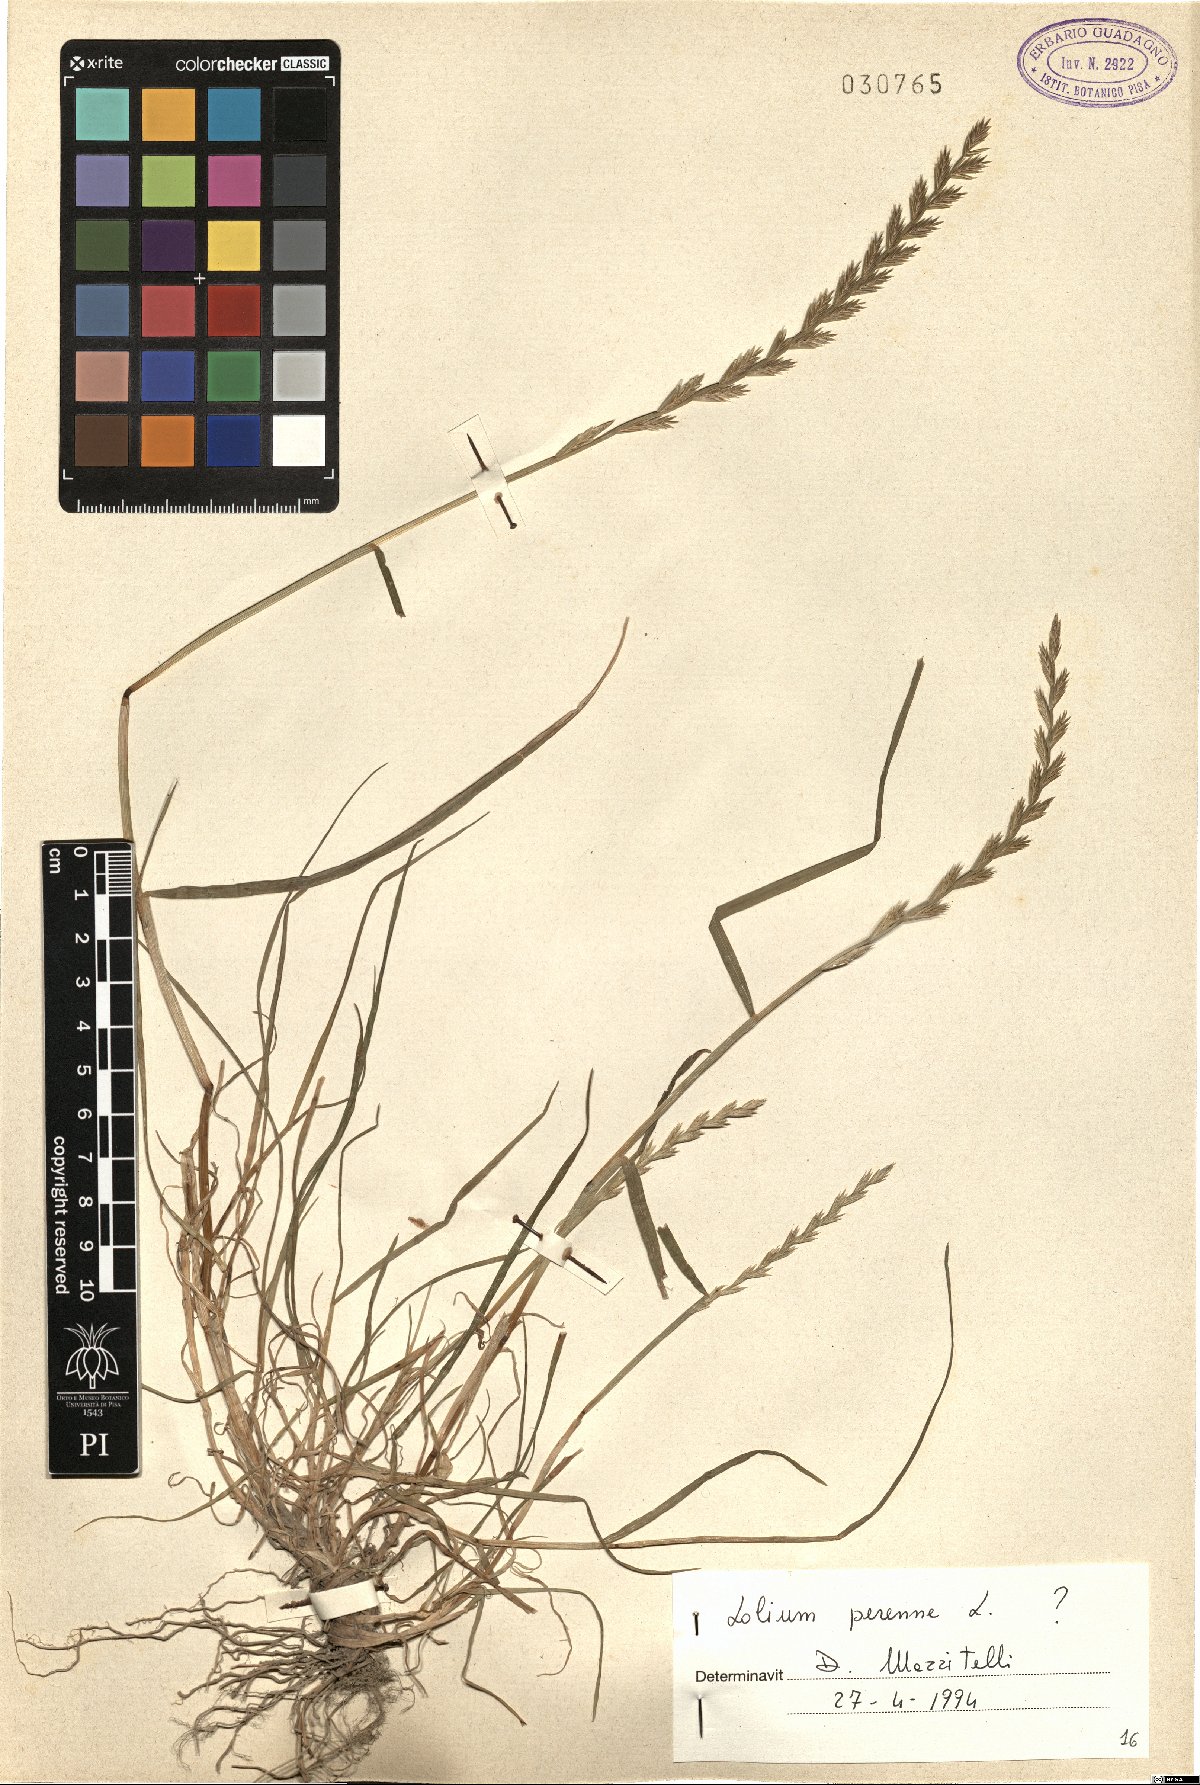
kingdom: Plantae
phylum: Tracheophyta
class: Liliopsida
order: Poales
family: Poaceae
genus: Lolium
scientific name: Lolium perenne
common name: Perennial ryegrass
